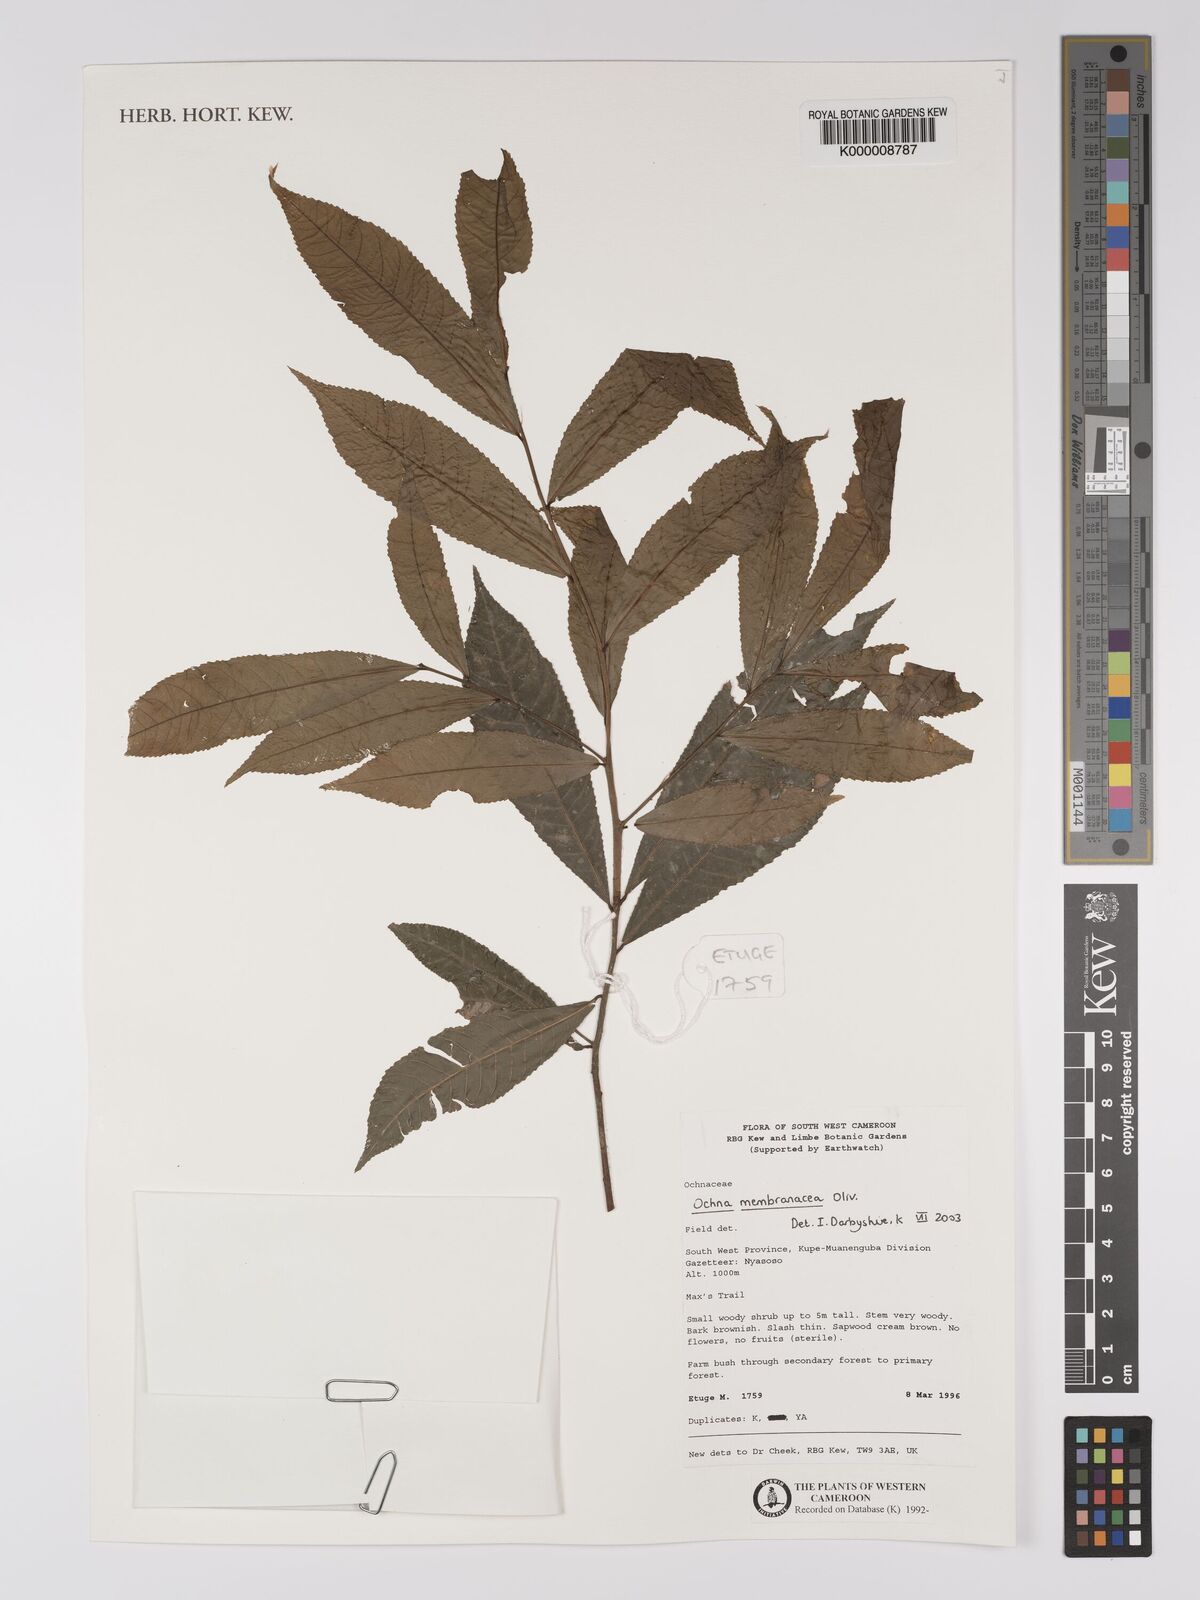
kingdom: Plantae
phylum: Tracheophyta
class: Magnoliopsida
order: Malpighiales
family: Ochnaceae
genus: Ochna
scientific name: Ochna membranacea
